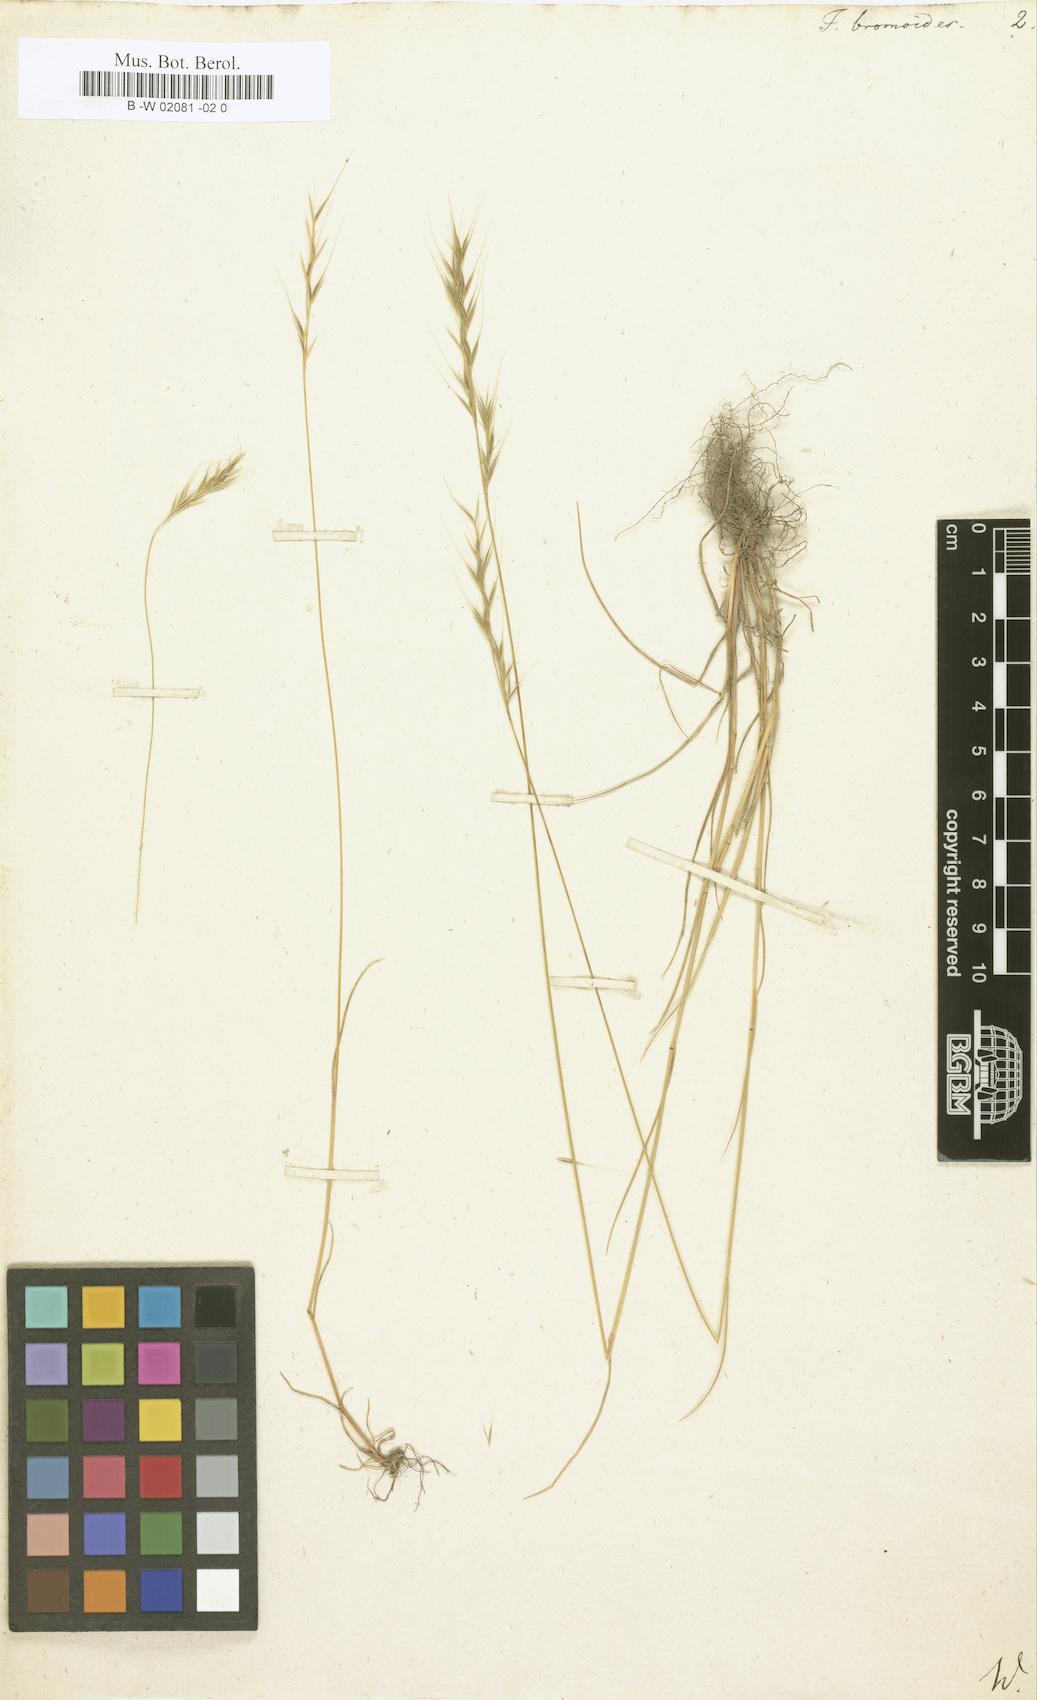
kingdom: Plantae
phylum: Tracheophyta
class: Liliopsida
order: Poales
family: Poaceae
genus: Festuca
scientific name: Festuca bromoides
